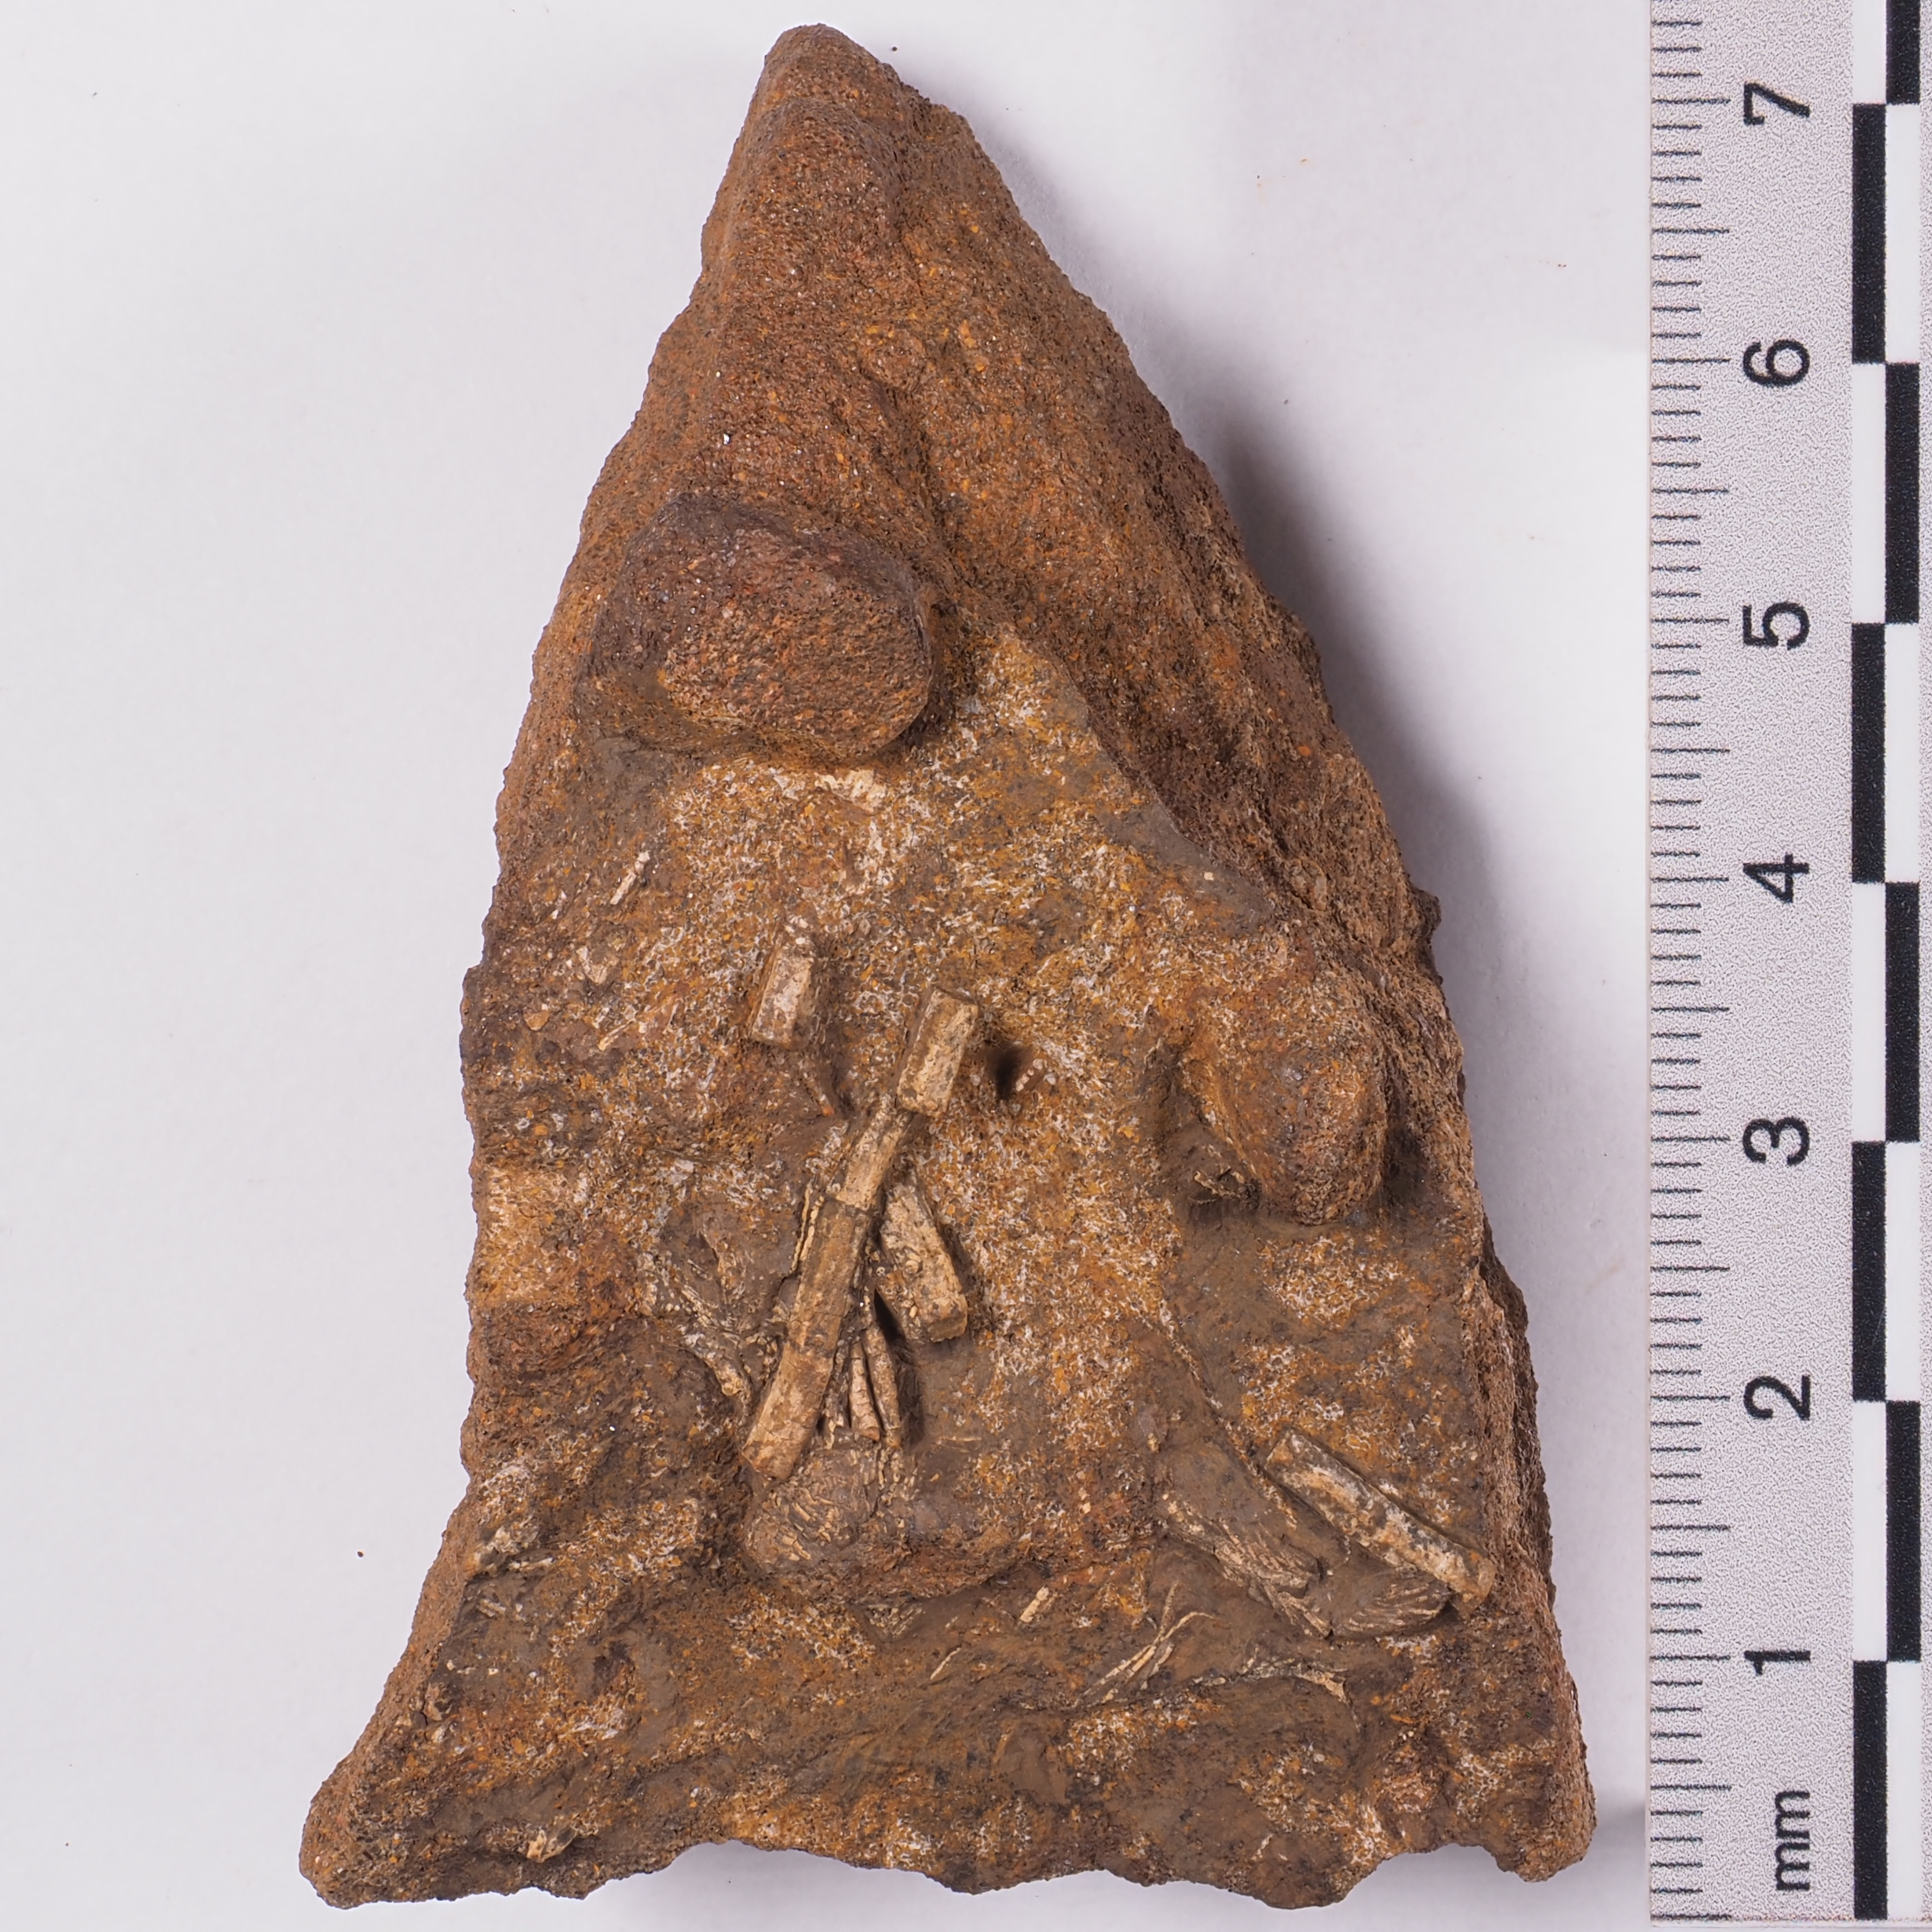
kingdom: Animalia
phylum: Echinodermata
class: Crinoidea
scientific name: Crinoidea
